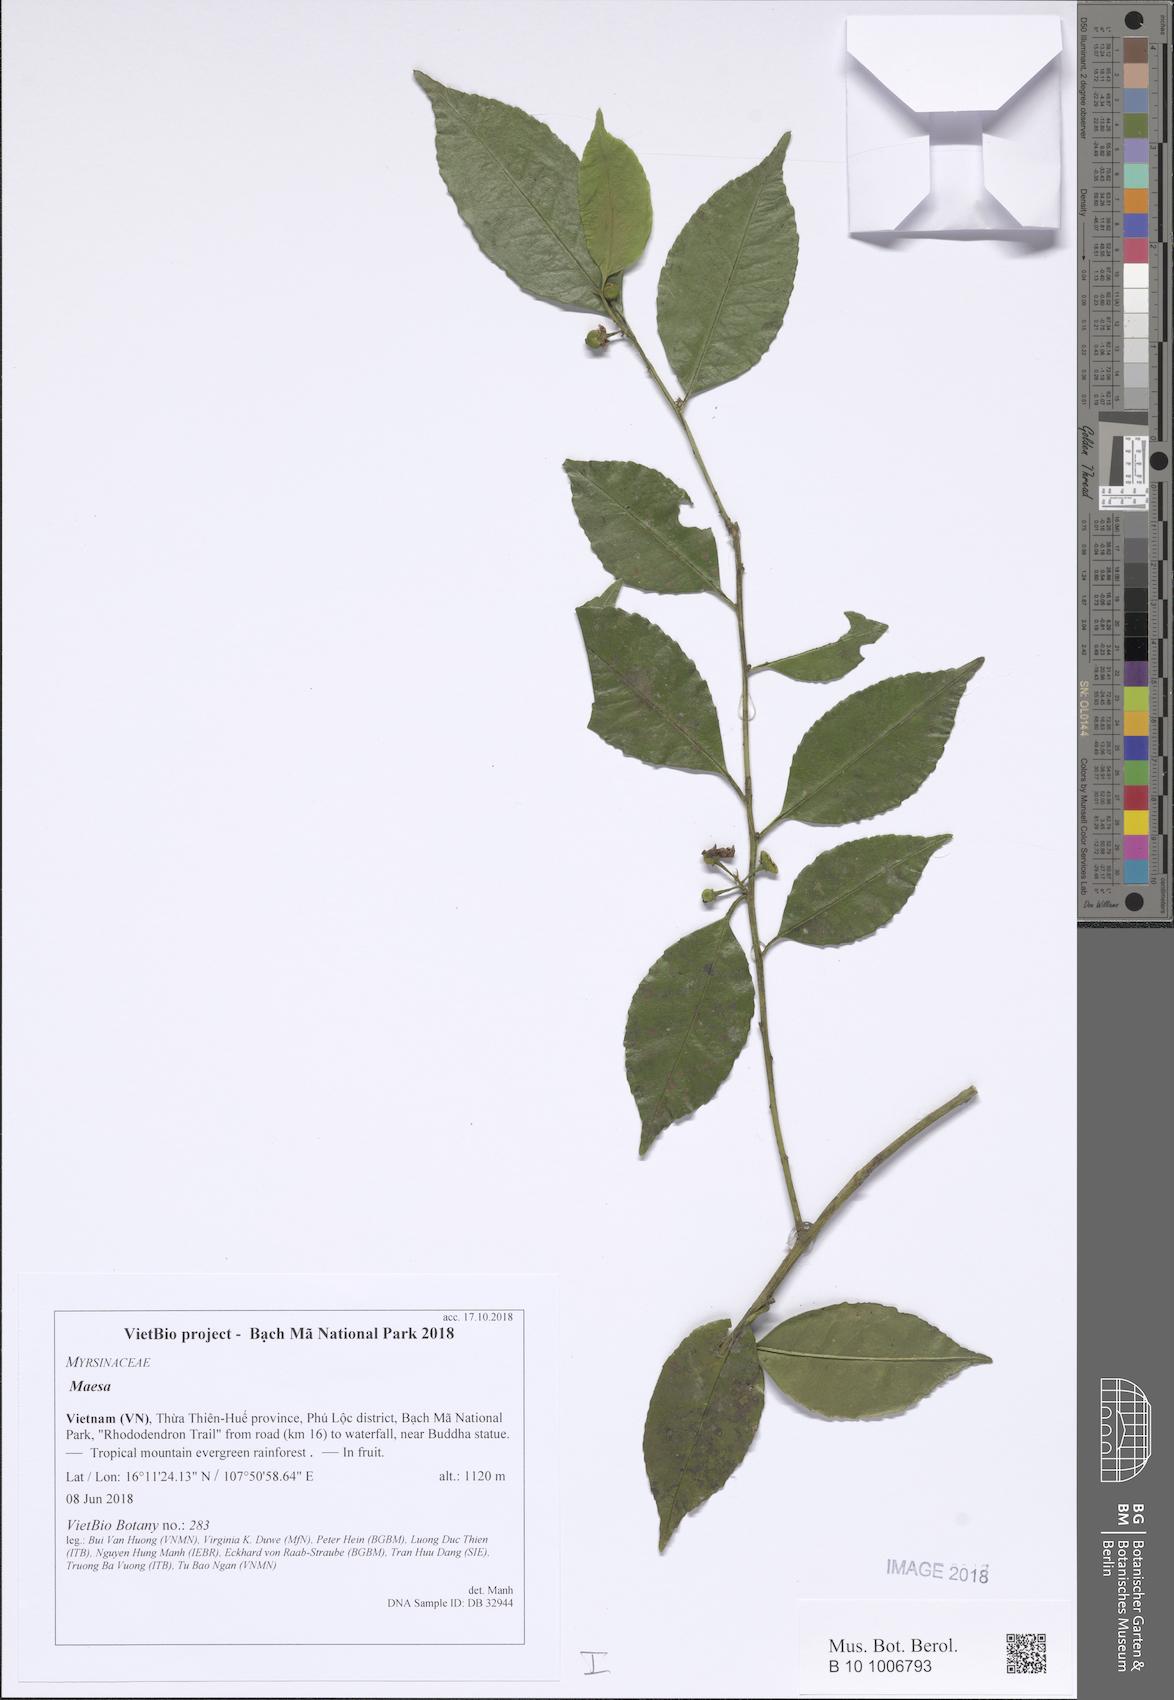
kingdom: Plantae
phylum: Tracheophyta
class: Magnoliopsida
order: Ericales
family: Primulaceae
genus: Maesa
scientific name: Maesa
